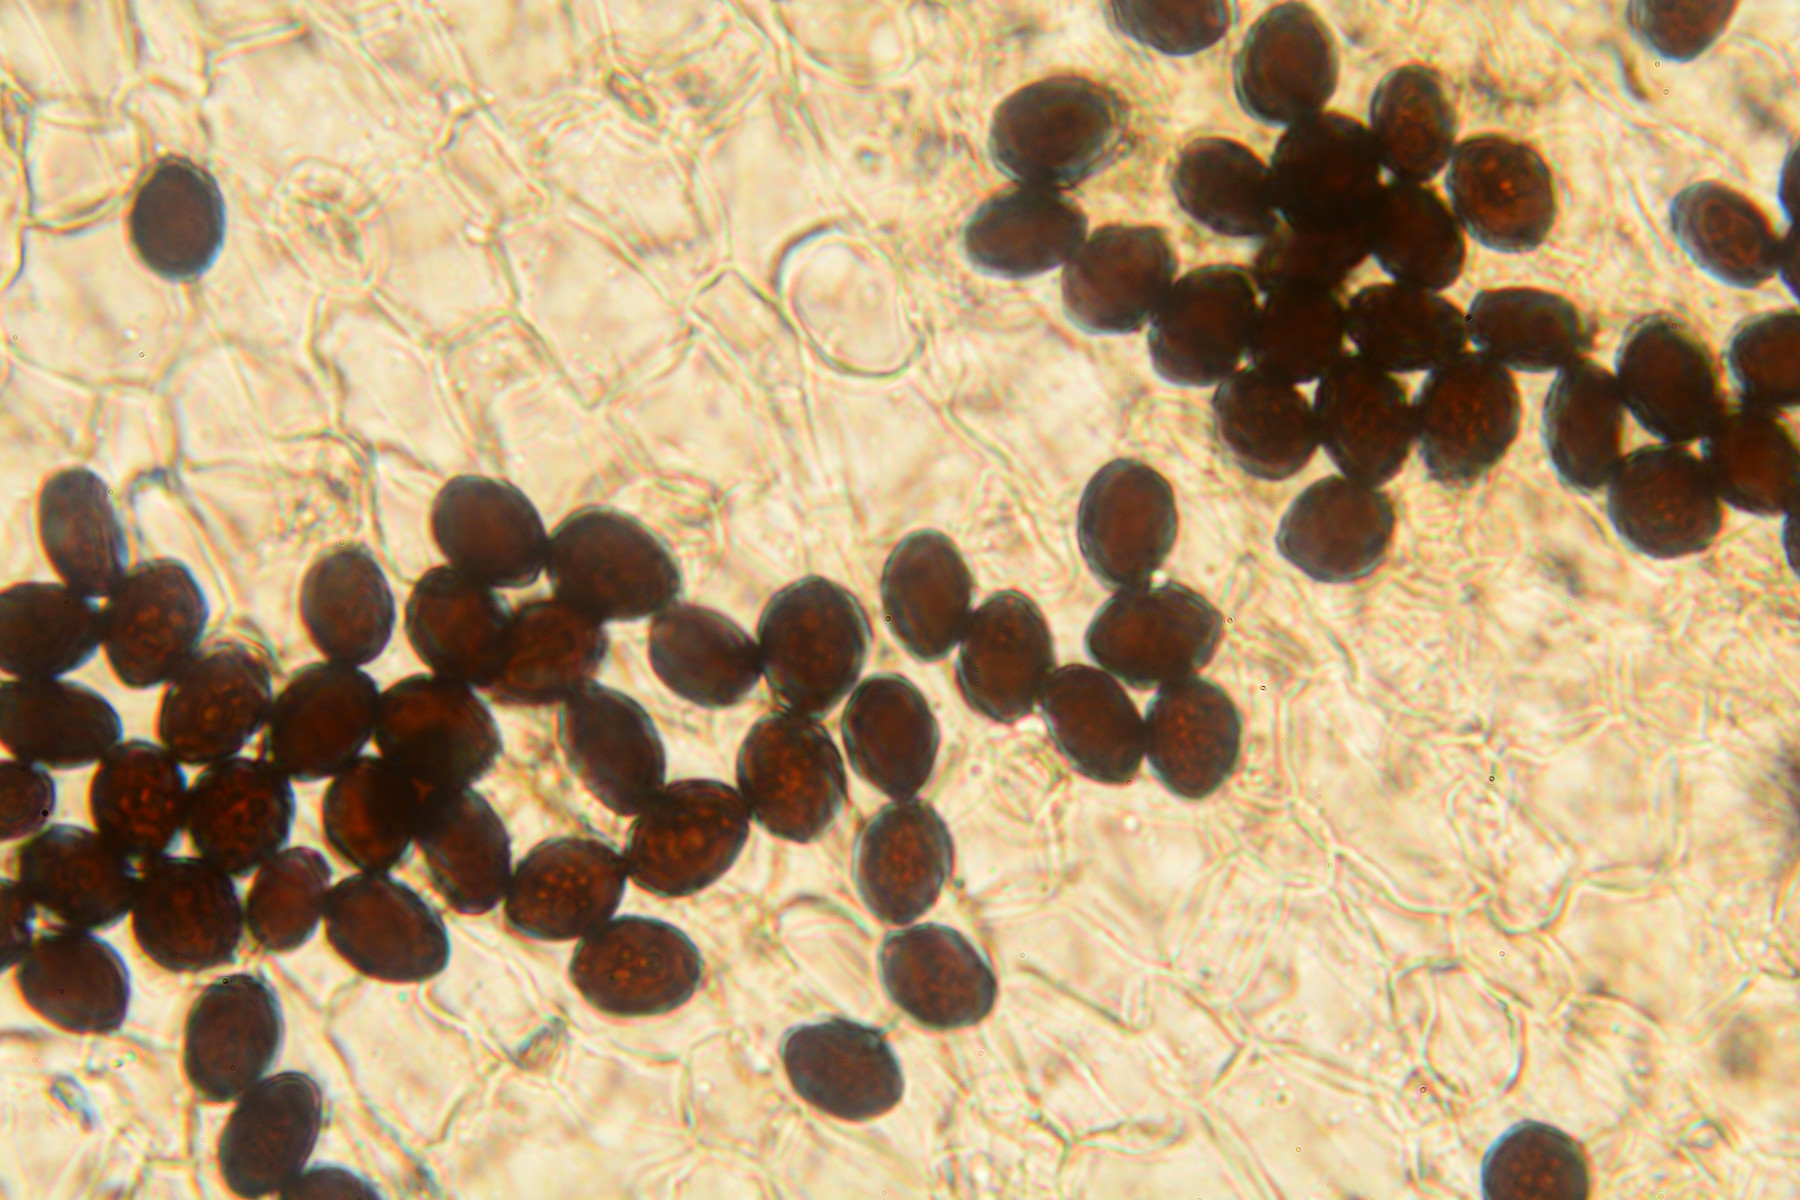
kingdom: Fungi
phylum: Basidiomycota
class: Agaricomycetes
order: Agaricales
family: Psathyrellaceae
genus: Parasola
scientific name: Parasola schroeteri
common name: bredsporet hjulhat
